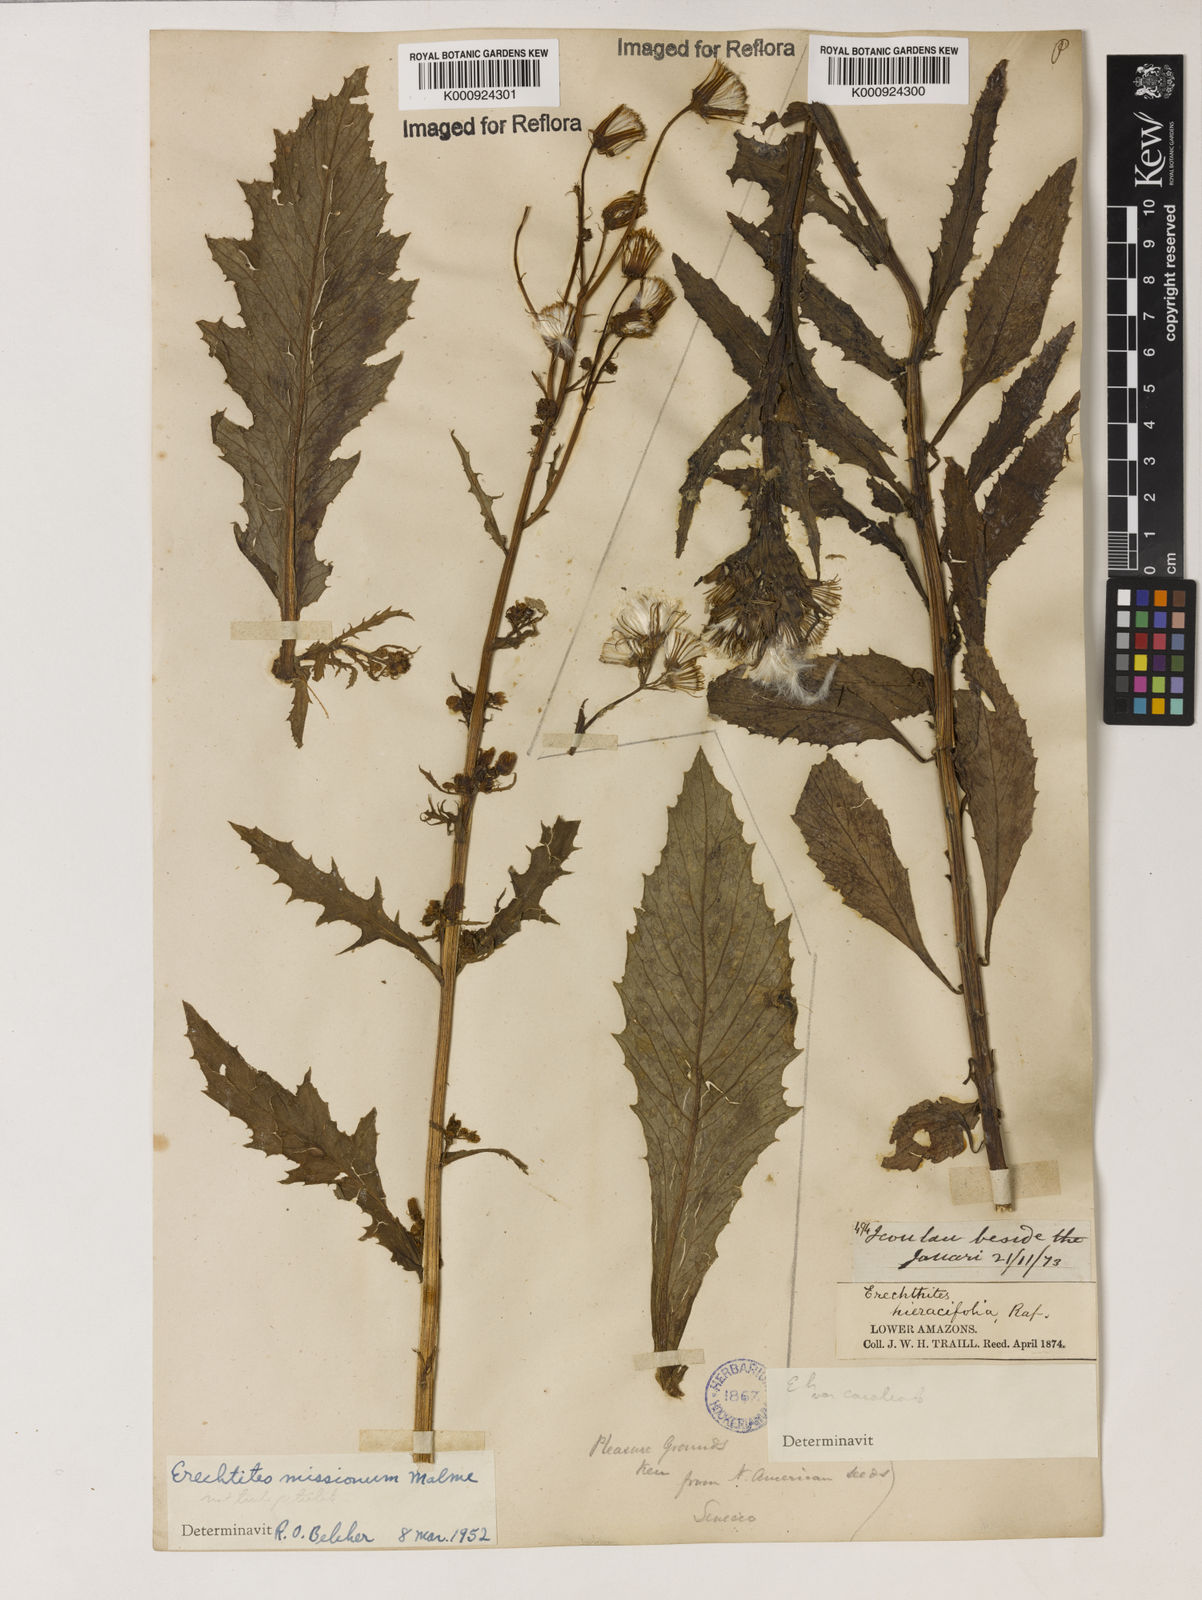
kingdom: Plantae
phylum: Tracheophyta
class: Magnoliopsida
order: Asterales
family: Asteraceae
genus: Erechtites
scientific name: Erechtites missionum
